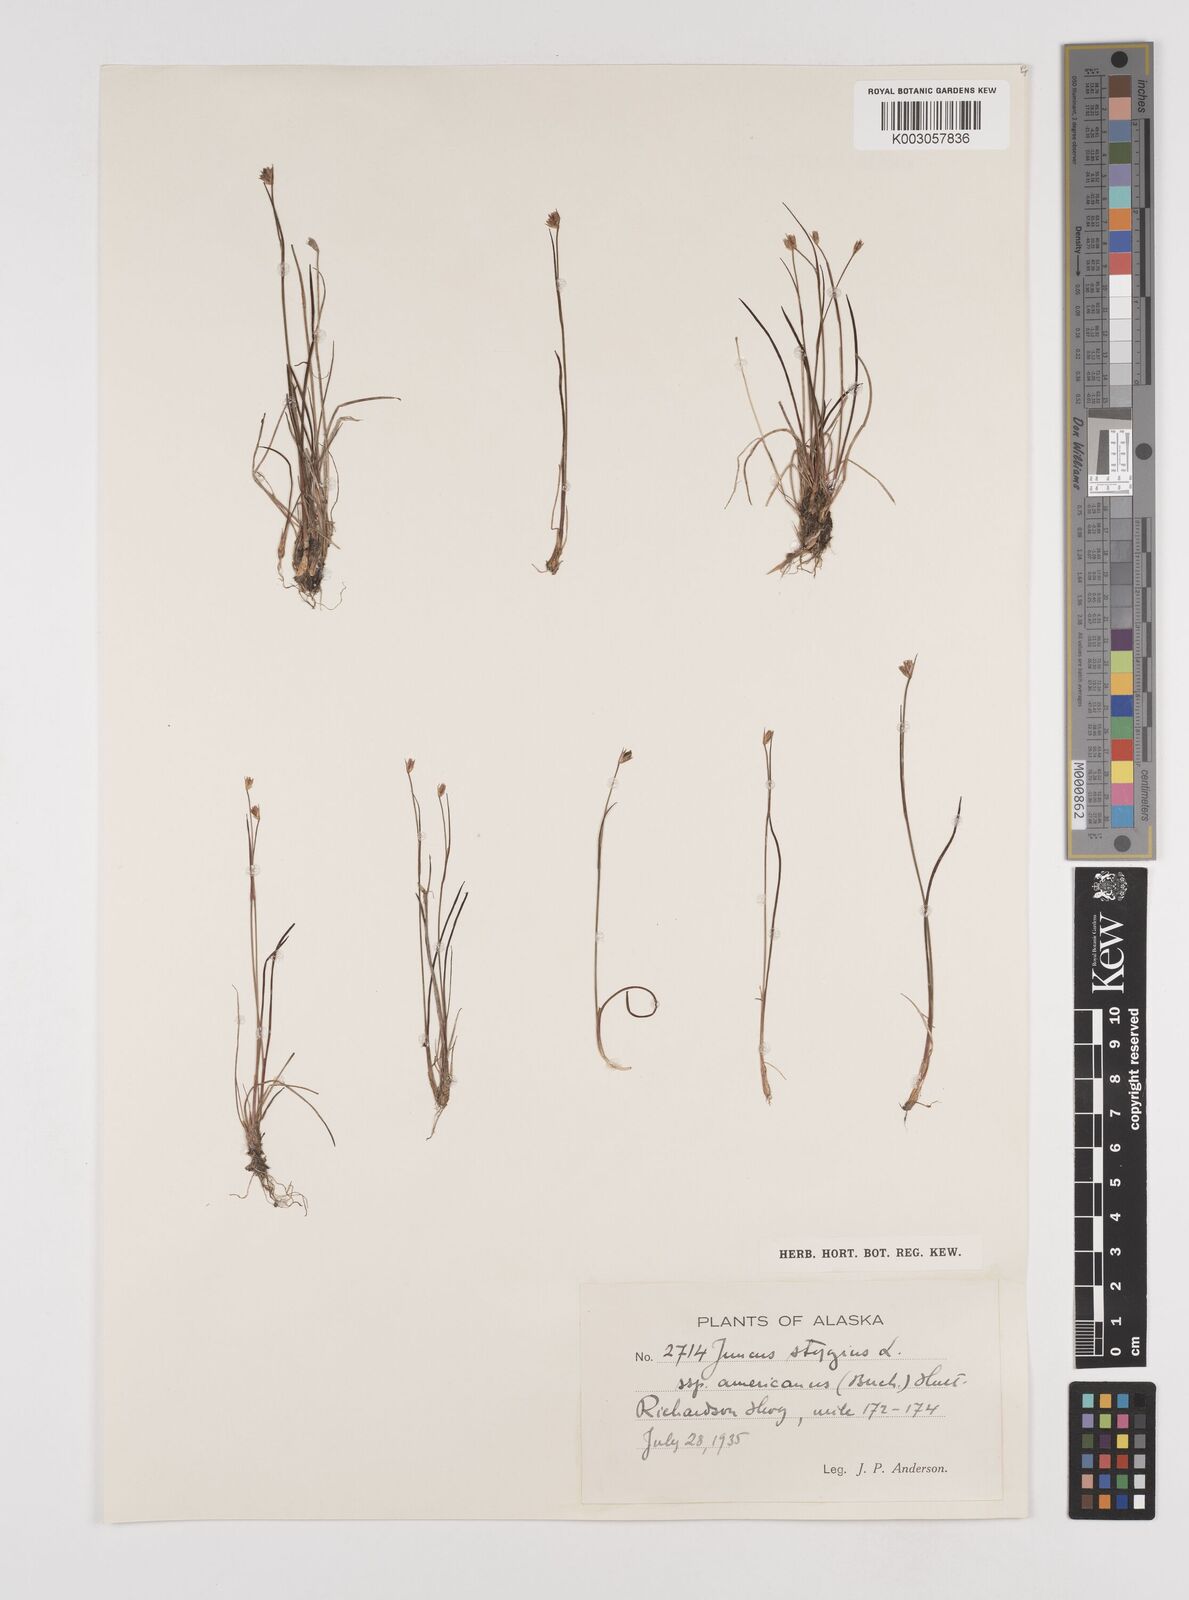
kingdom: Plantae
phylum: Tracheophyta
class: Liliopsida
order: Poales
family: Juncaceae
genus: Juncus
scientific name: Juncus stygius
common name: Bog rush
